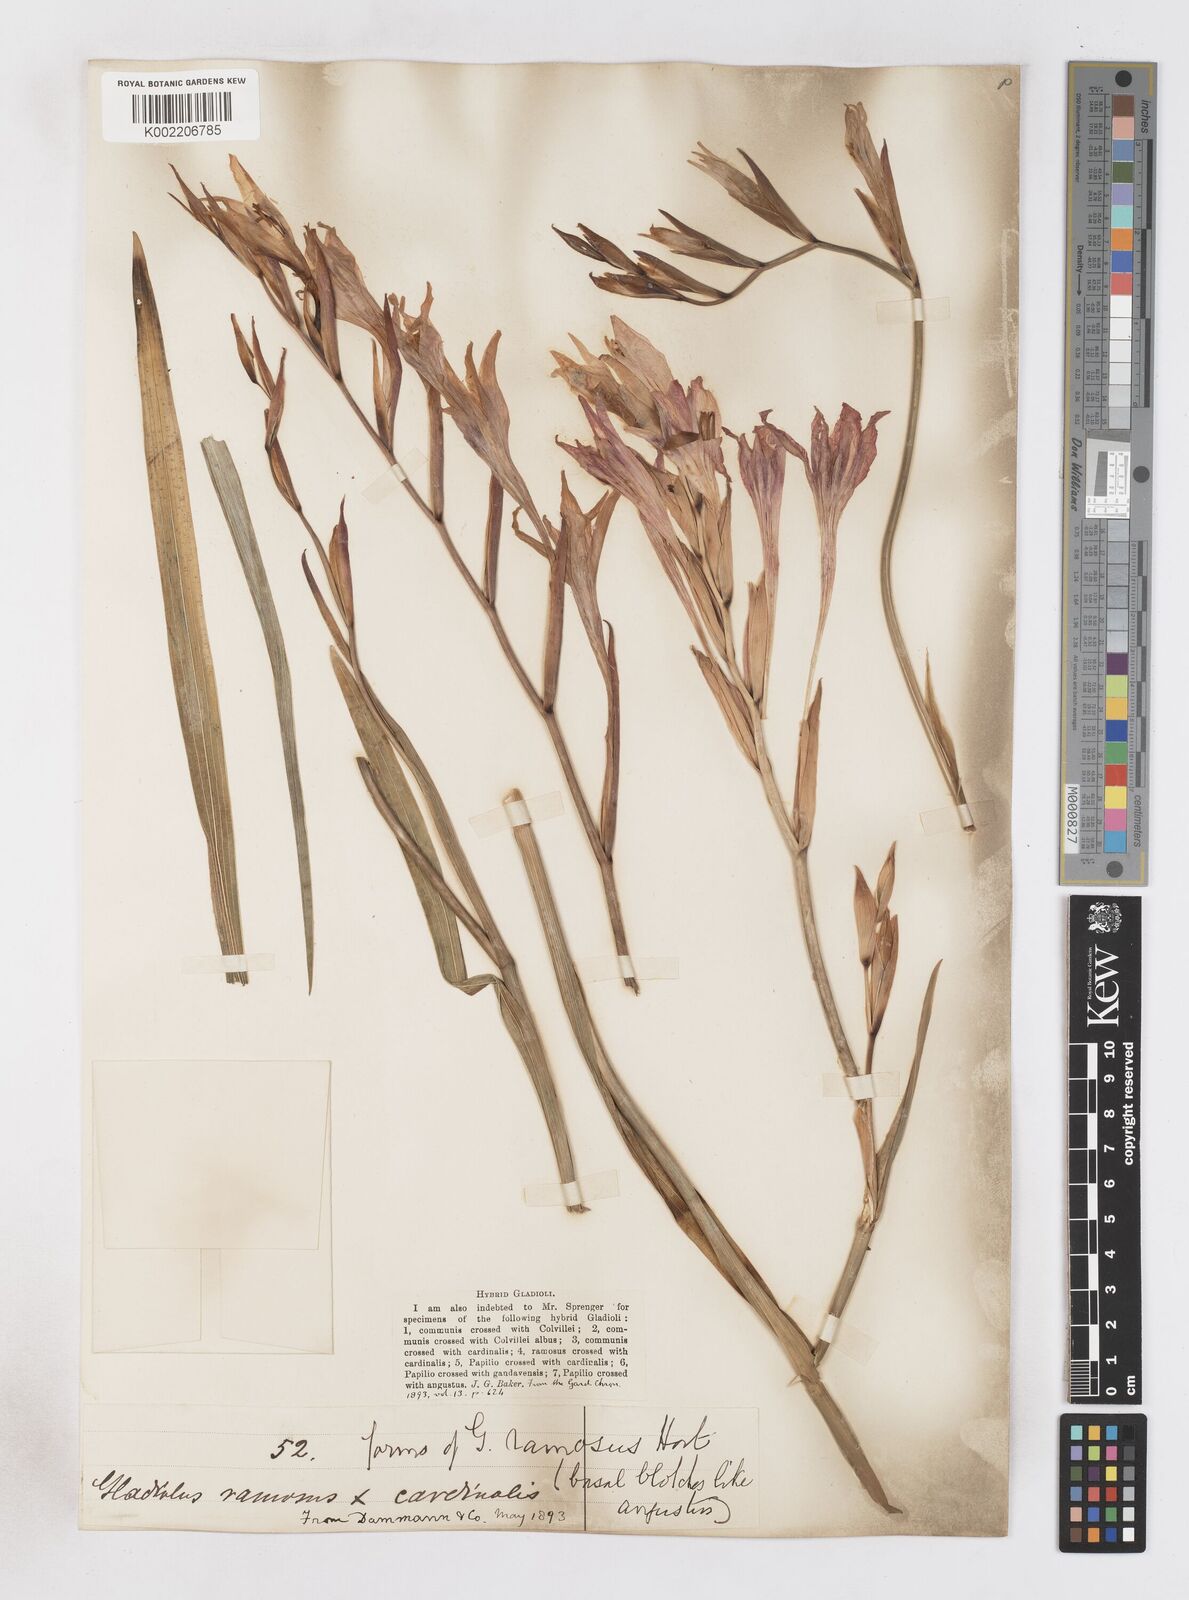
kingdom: Plantae
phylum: Tracheophyta
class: Liliopsida
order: Asparagales
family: Iridaceae
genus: Gladiolus
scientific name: Gladiolus
